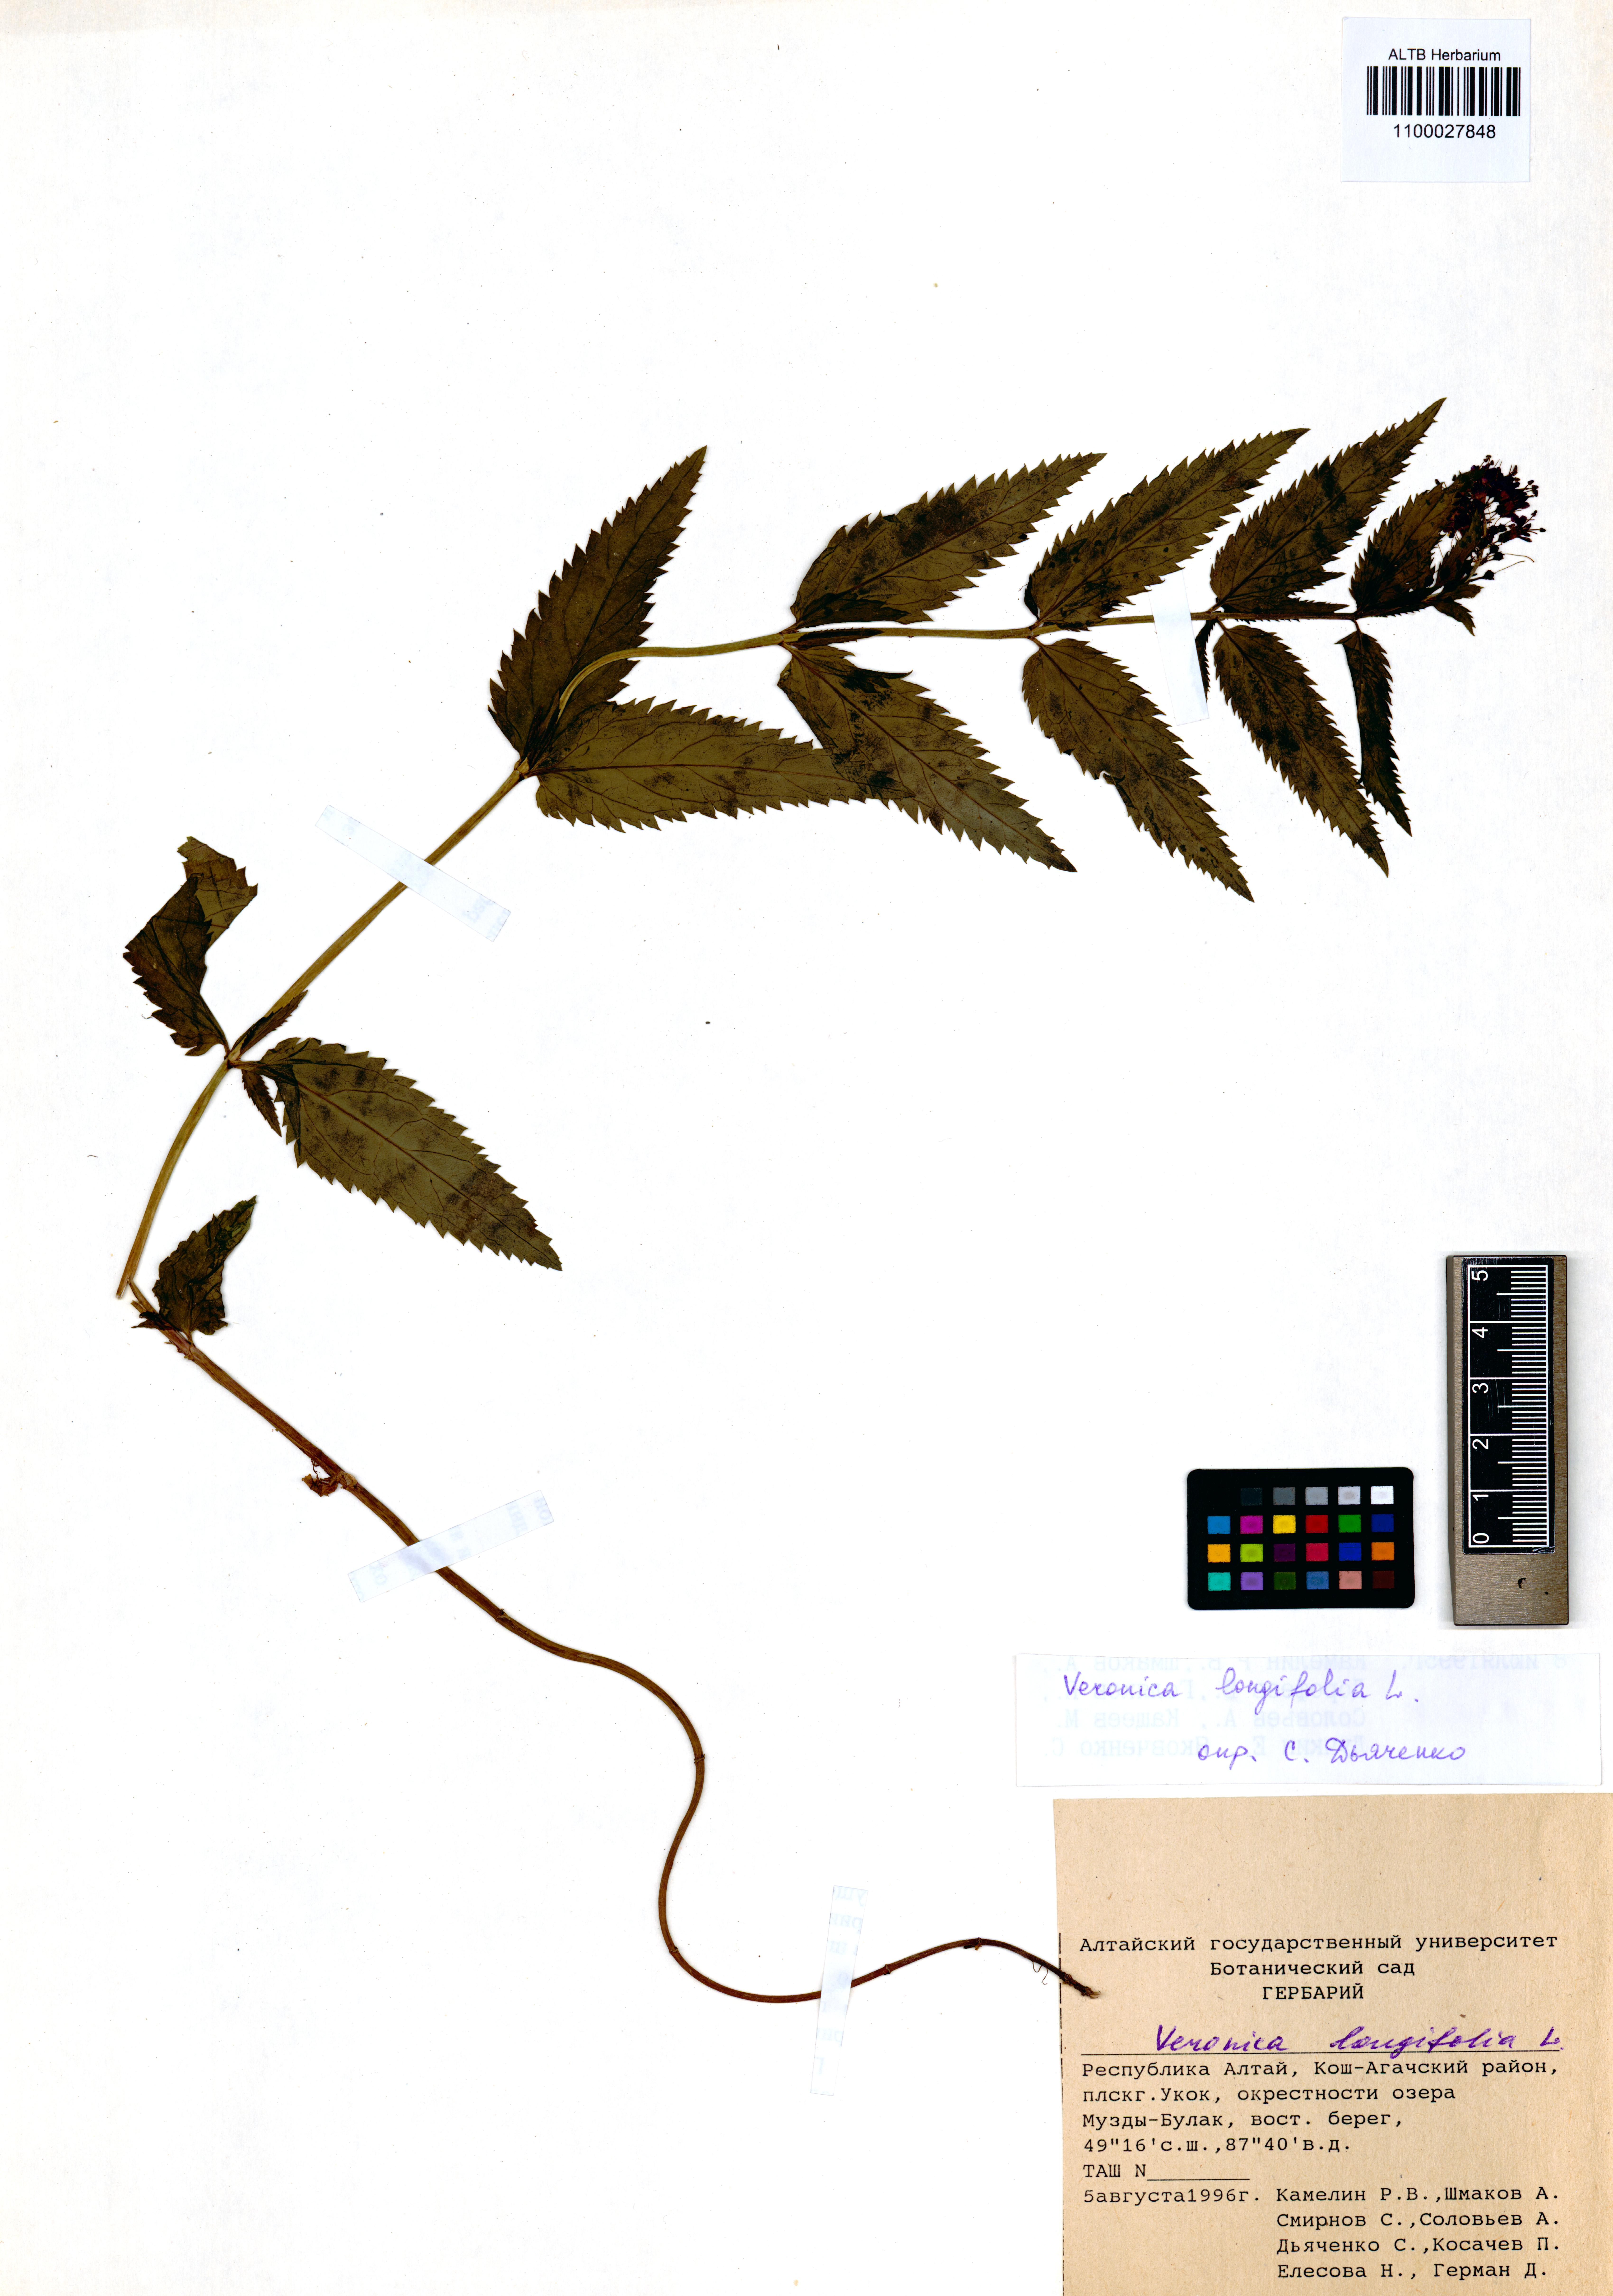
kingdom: Plantae
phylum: Tracheophyta
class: Magnoliopsida
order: Lamiales
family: Plantaginaceae
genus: Veronica
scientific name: Veronica longifolia
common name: Garden speedwell
